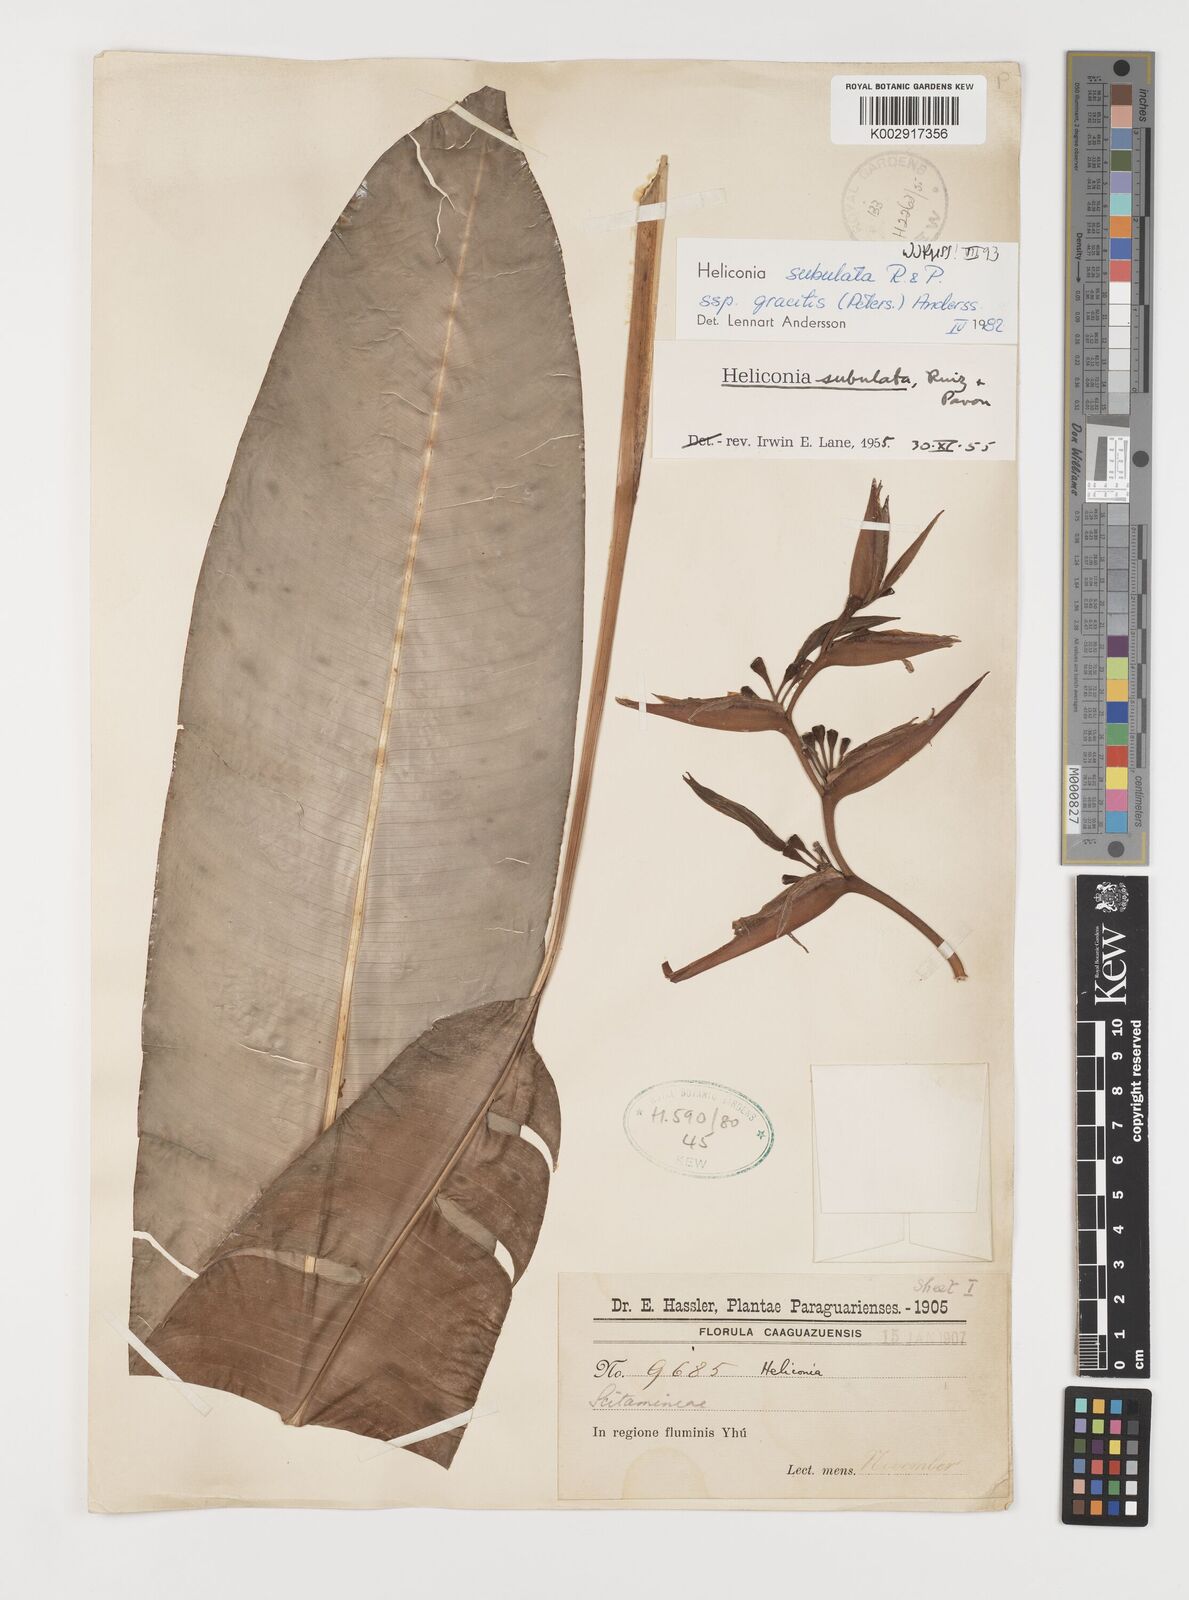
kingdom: Plantae
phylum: Tracheophyta
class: Liliopsida
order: Zingiberales
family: Heliconiaceae
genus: Heliconia
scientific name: Heliconia subulata
